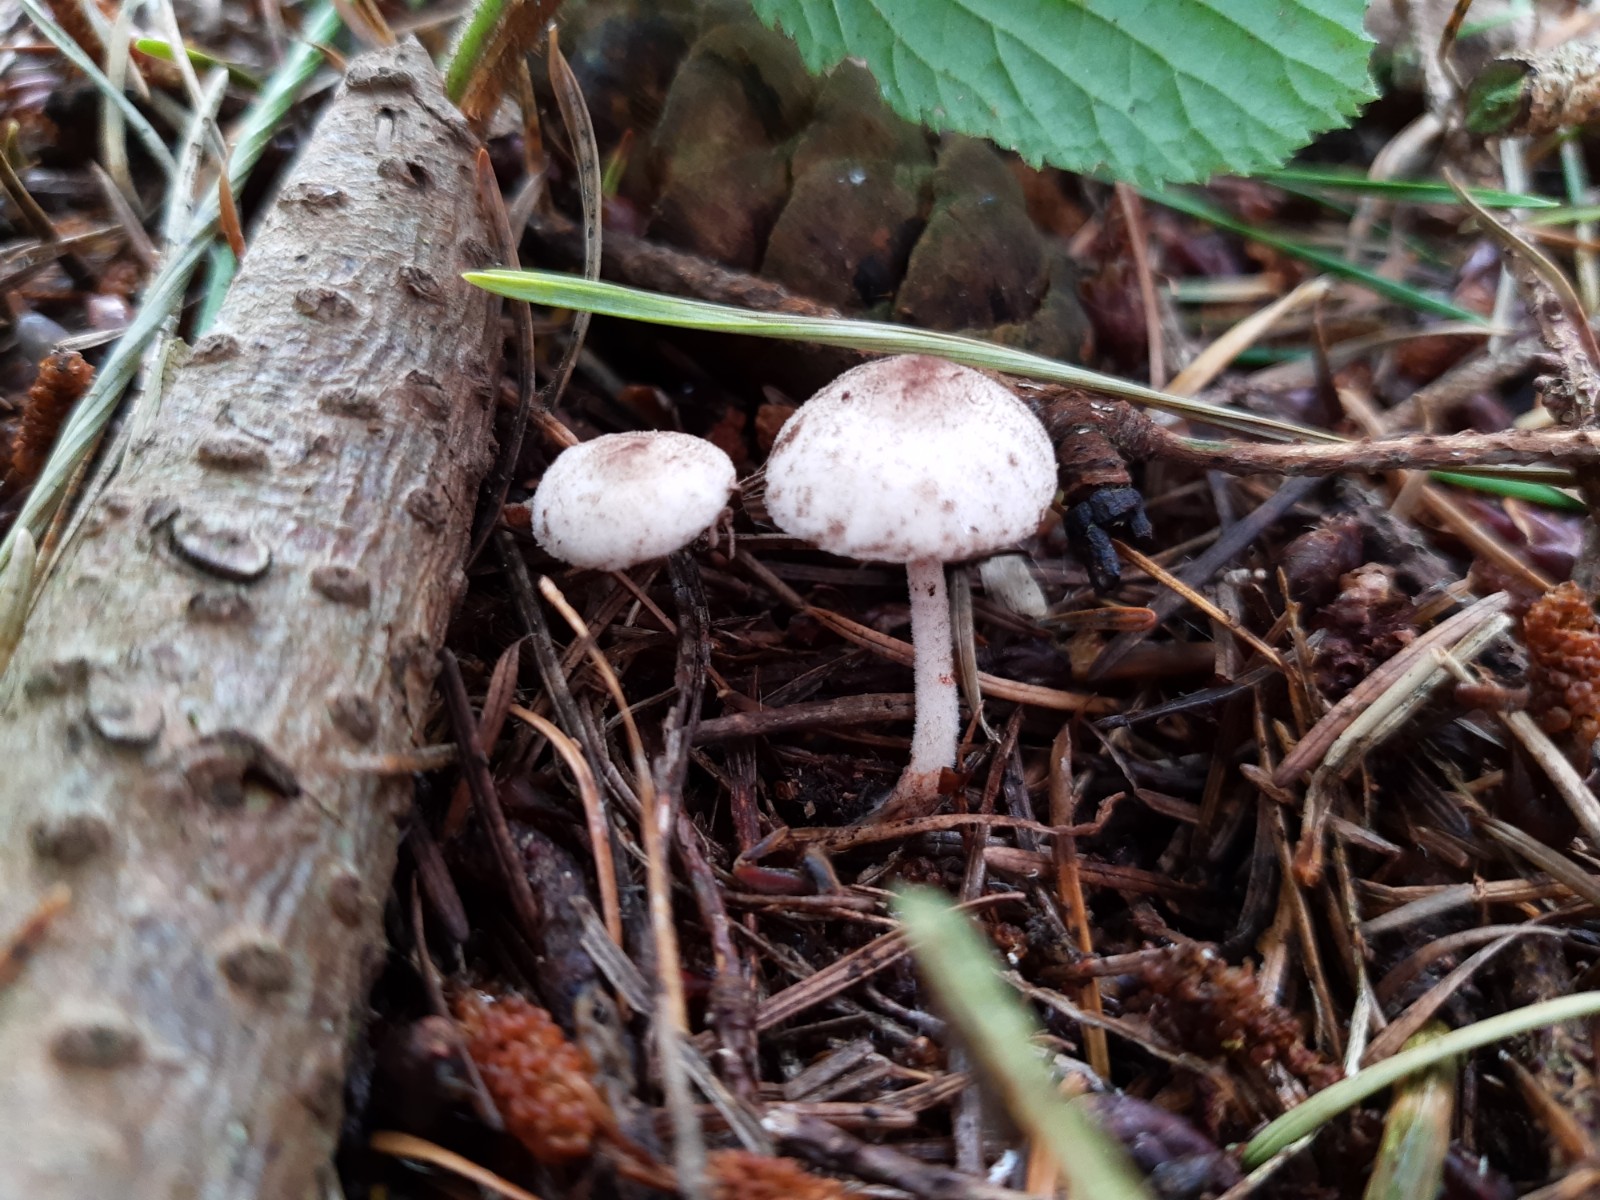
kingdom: Fungi
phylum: Basidiomycota
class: Agaricomycetes
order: Agaricales
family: Agaricaceae
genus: Leucoagaricus
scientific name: Leucoagaricus georginae
